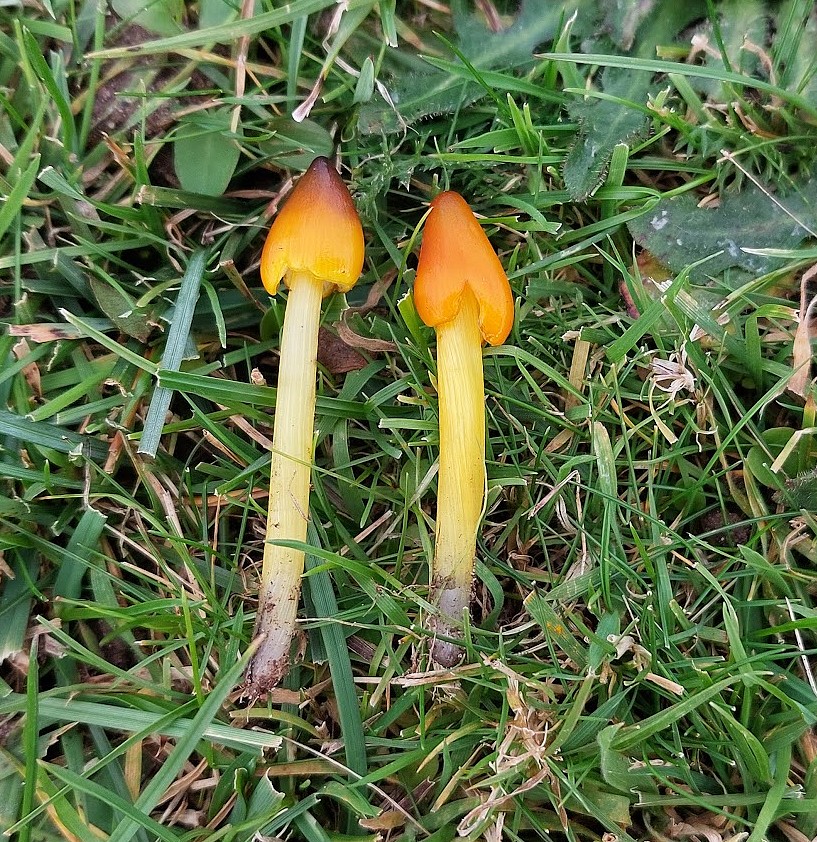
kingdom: Fungi
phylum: Basidiomycota
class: Agaricomycetes
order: Agaricales
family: Hygrophoraceae
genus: Hygrocybe
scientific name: Hygrocybe conica
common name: kegle-vokshat
